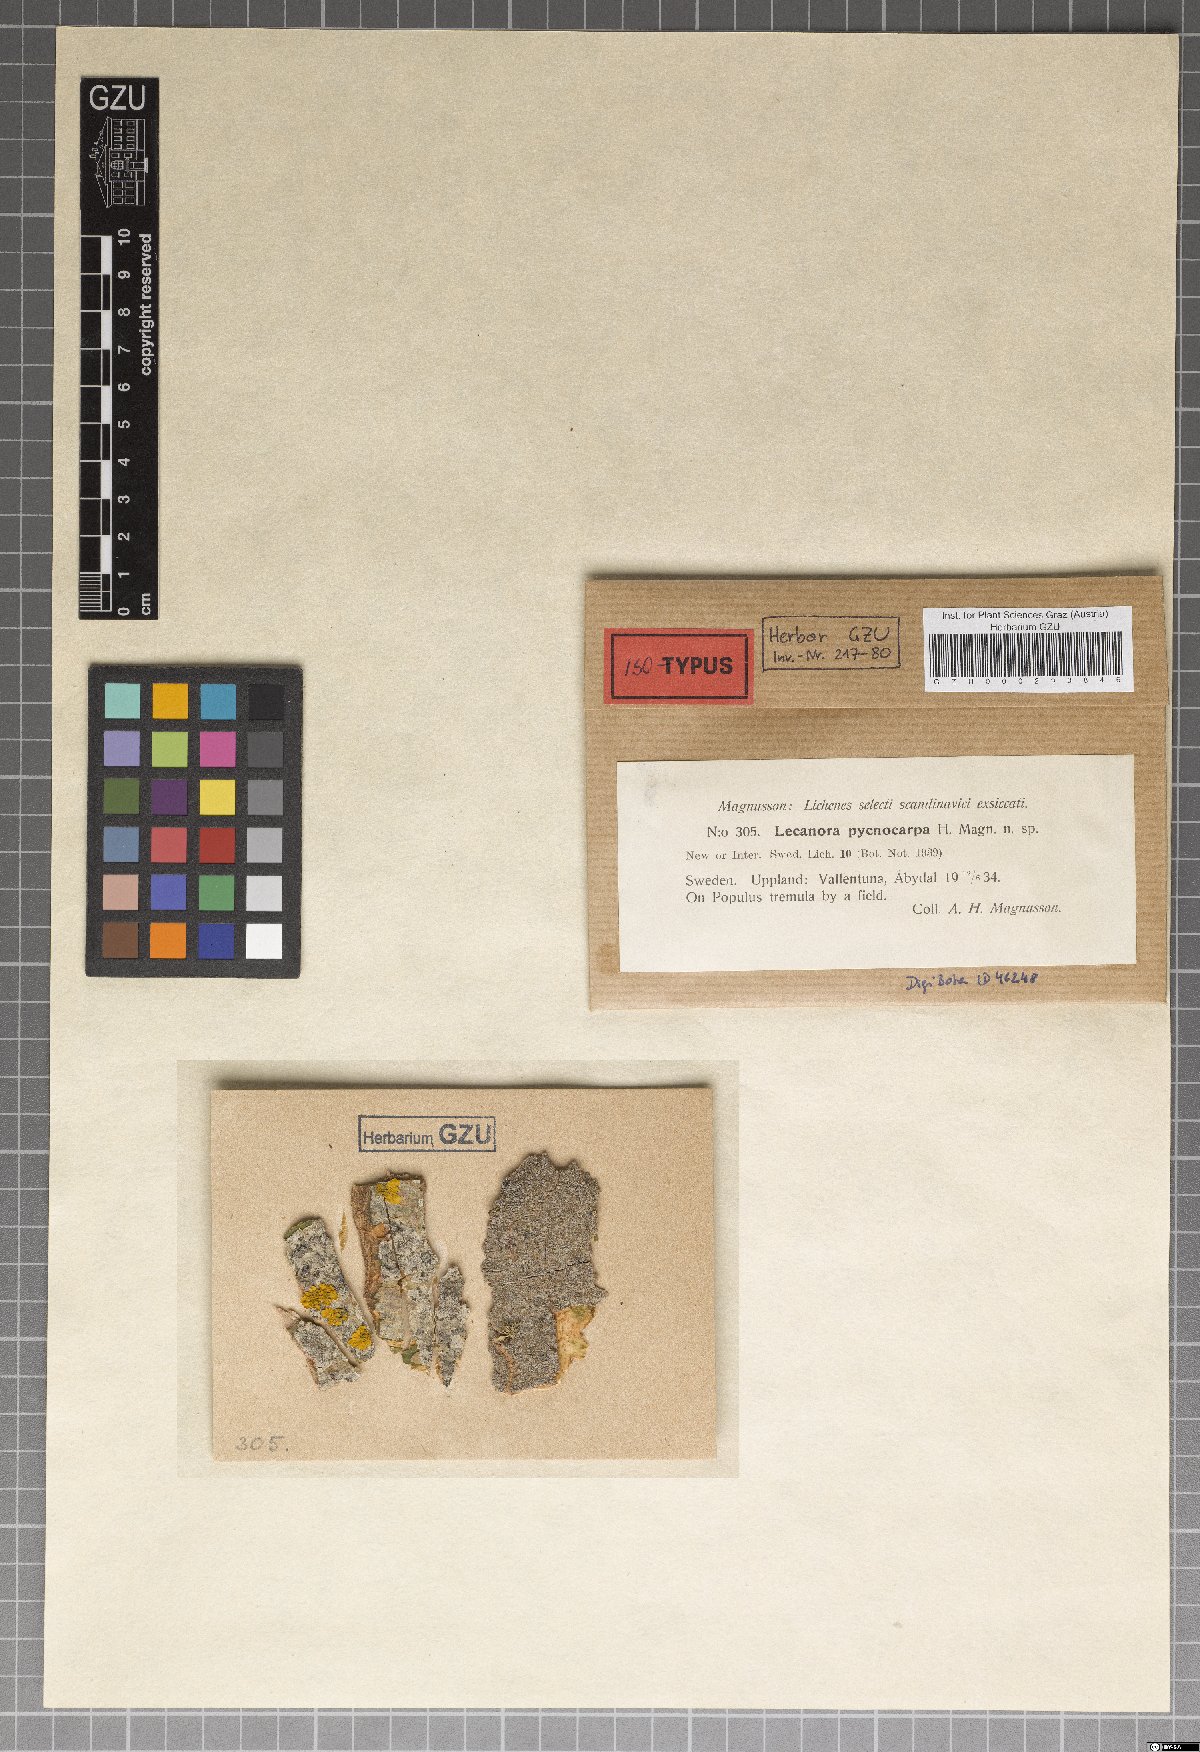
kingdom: Fungi
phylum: Ascomycota
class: Lecanoromycetes
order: Lecanorales
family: Lecanoraceae
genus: Lecanora
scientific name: Lecanora leptyrodes
